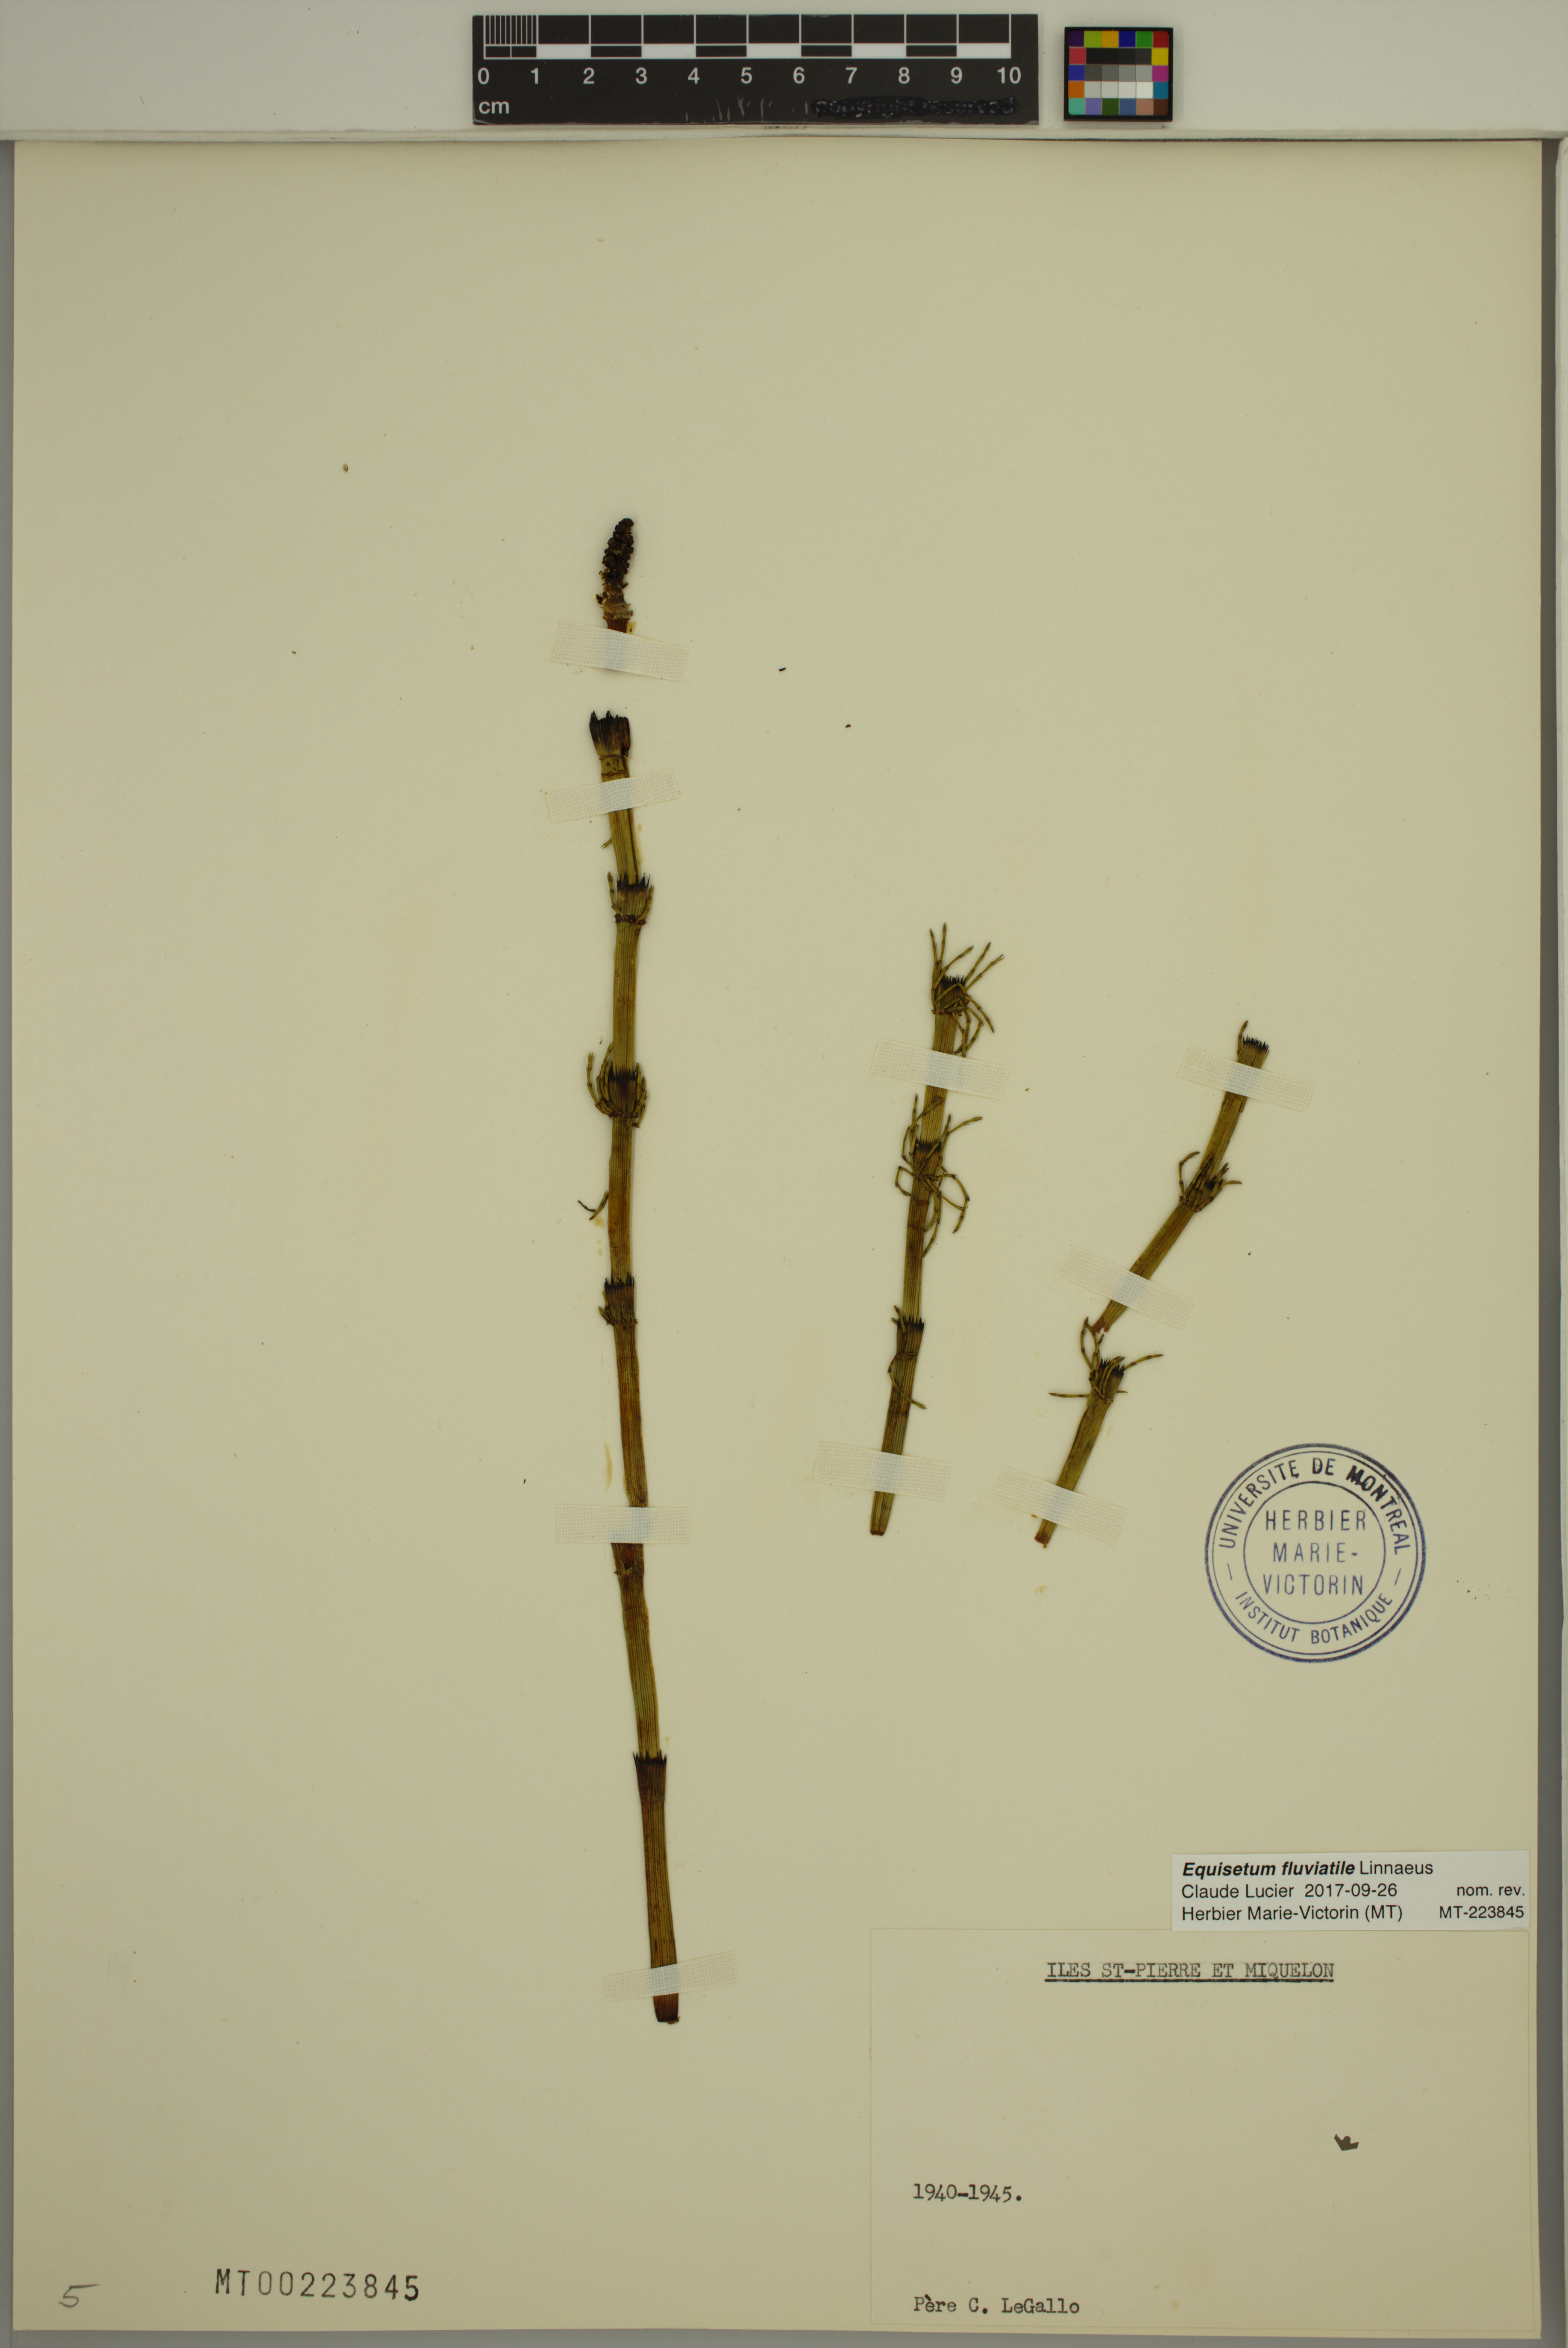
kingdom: Plantae
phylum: Tracheophyta
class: Polypodiopsida
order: Equisetales
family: Equisetaceae
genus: Equisetum
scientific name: Equisetum fluviatile
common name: Water horsetail
